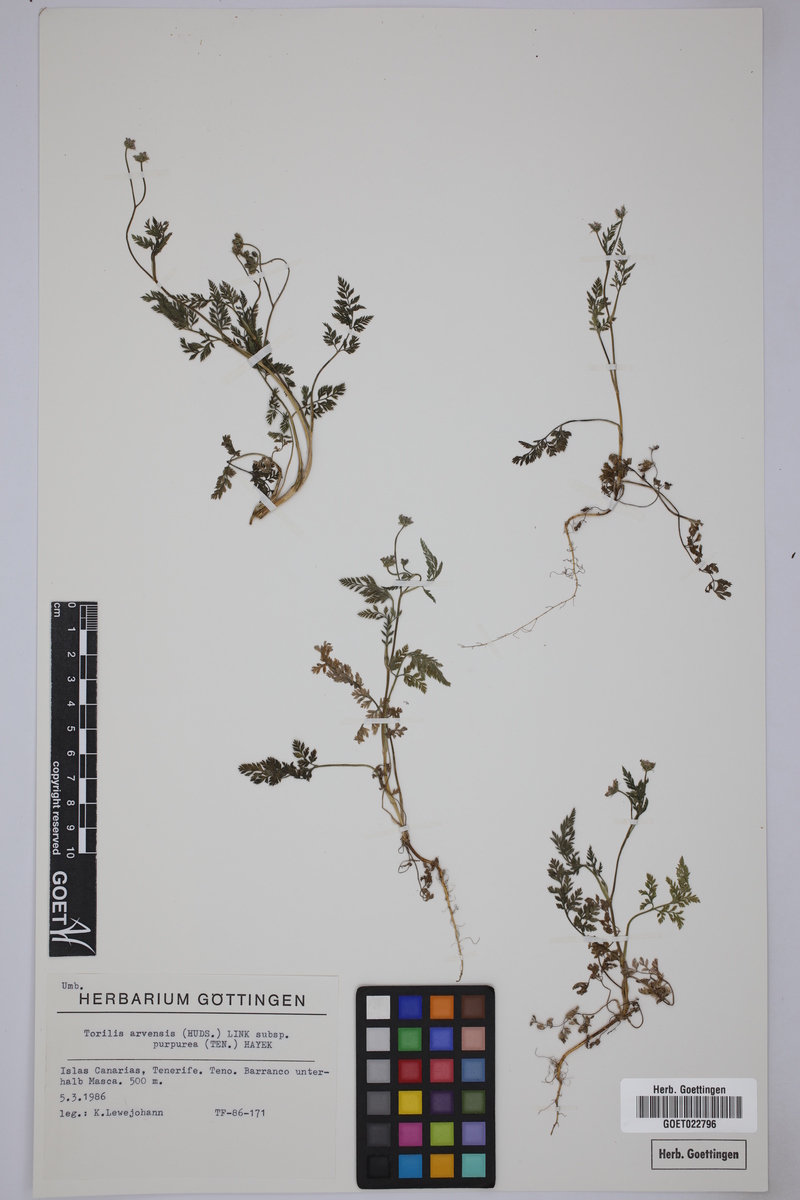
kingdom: Plantae
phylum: Tracheophyta
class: Magnoliopsida
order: Apiales
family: Apiaceae
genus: Torilis
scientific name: Torilis africana
